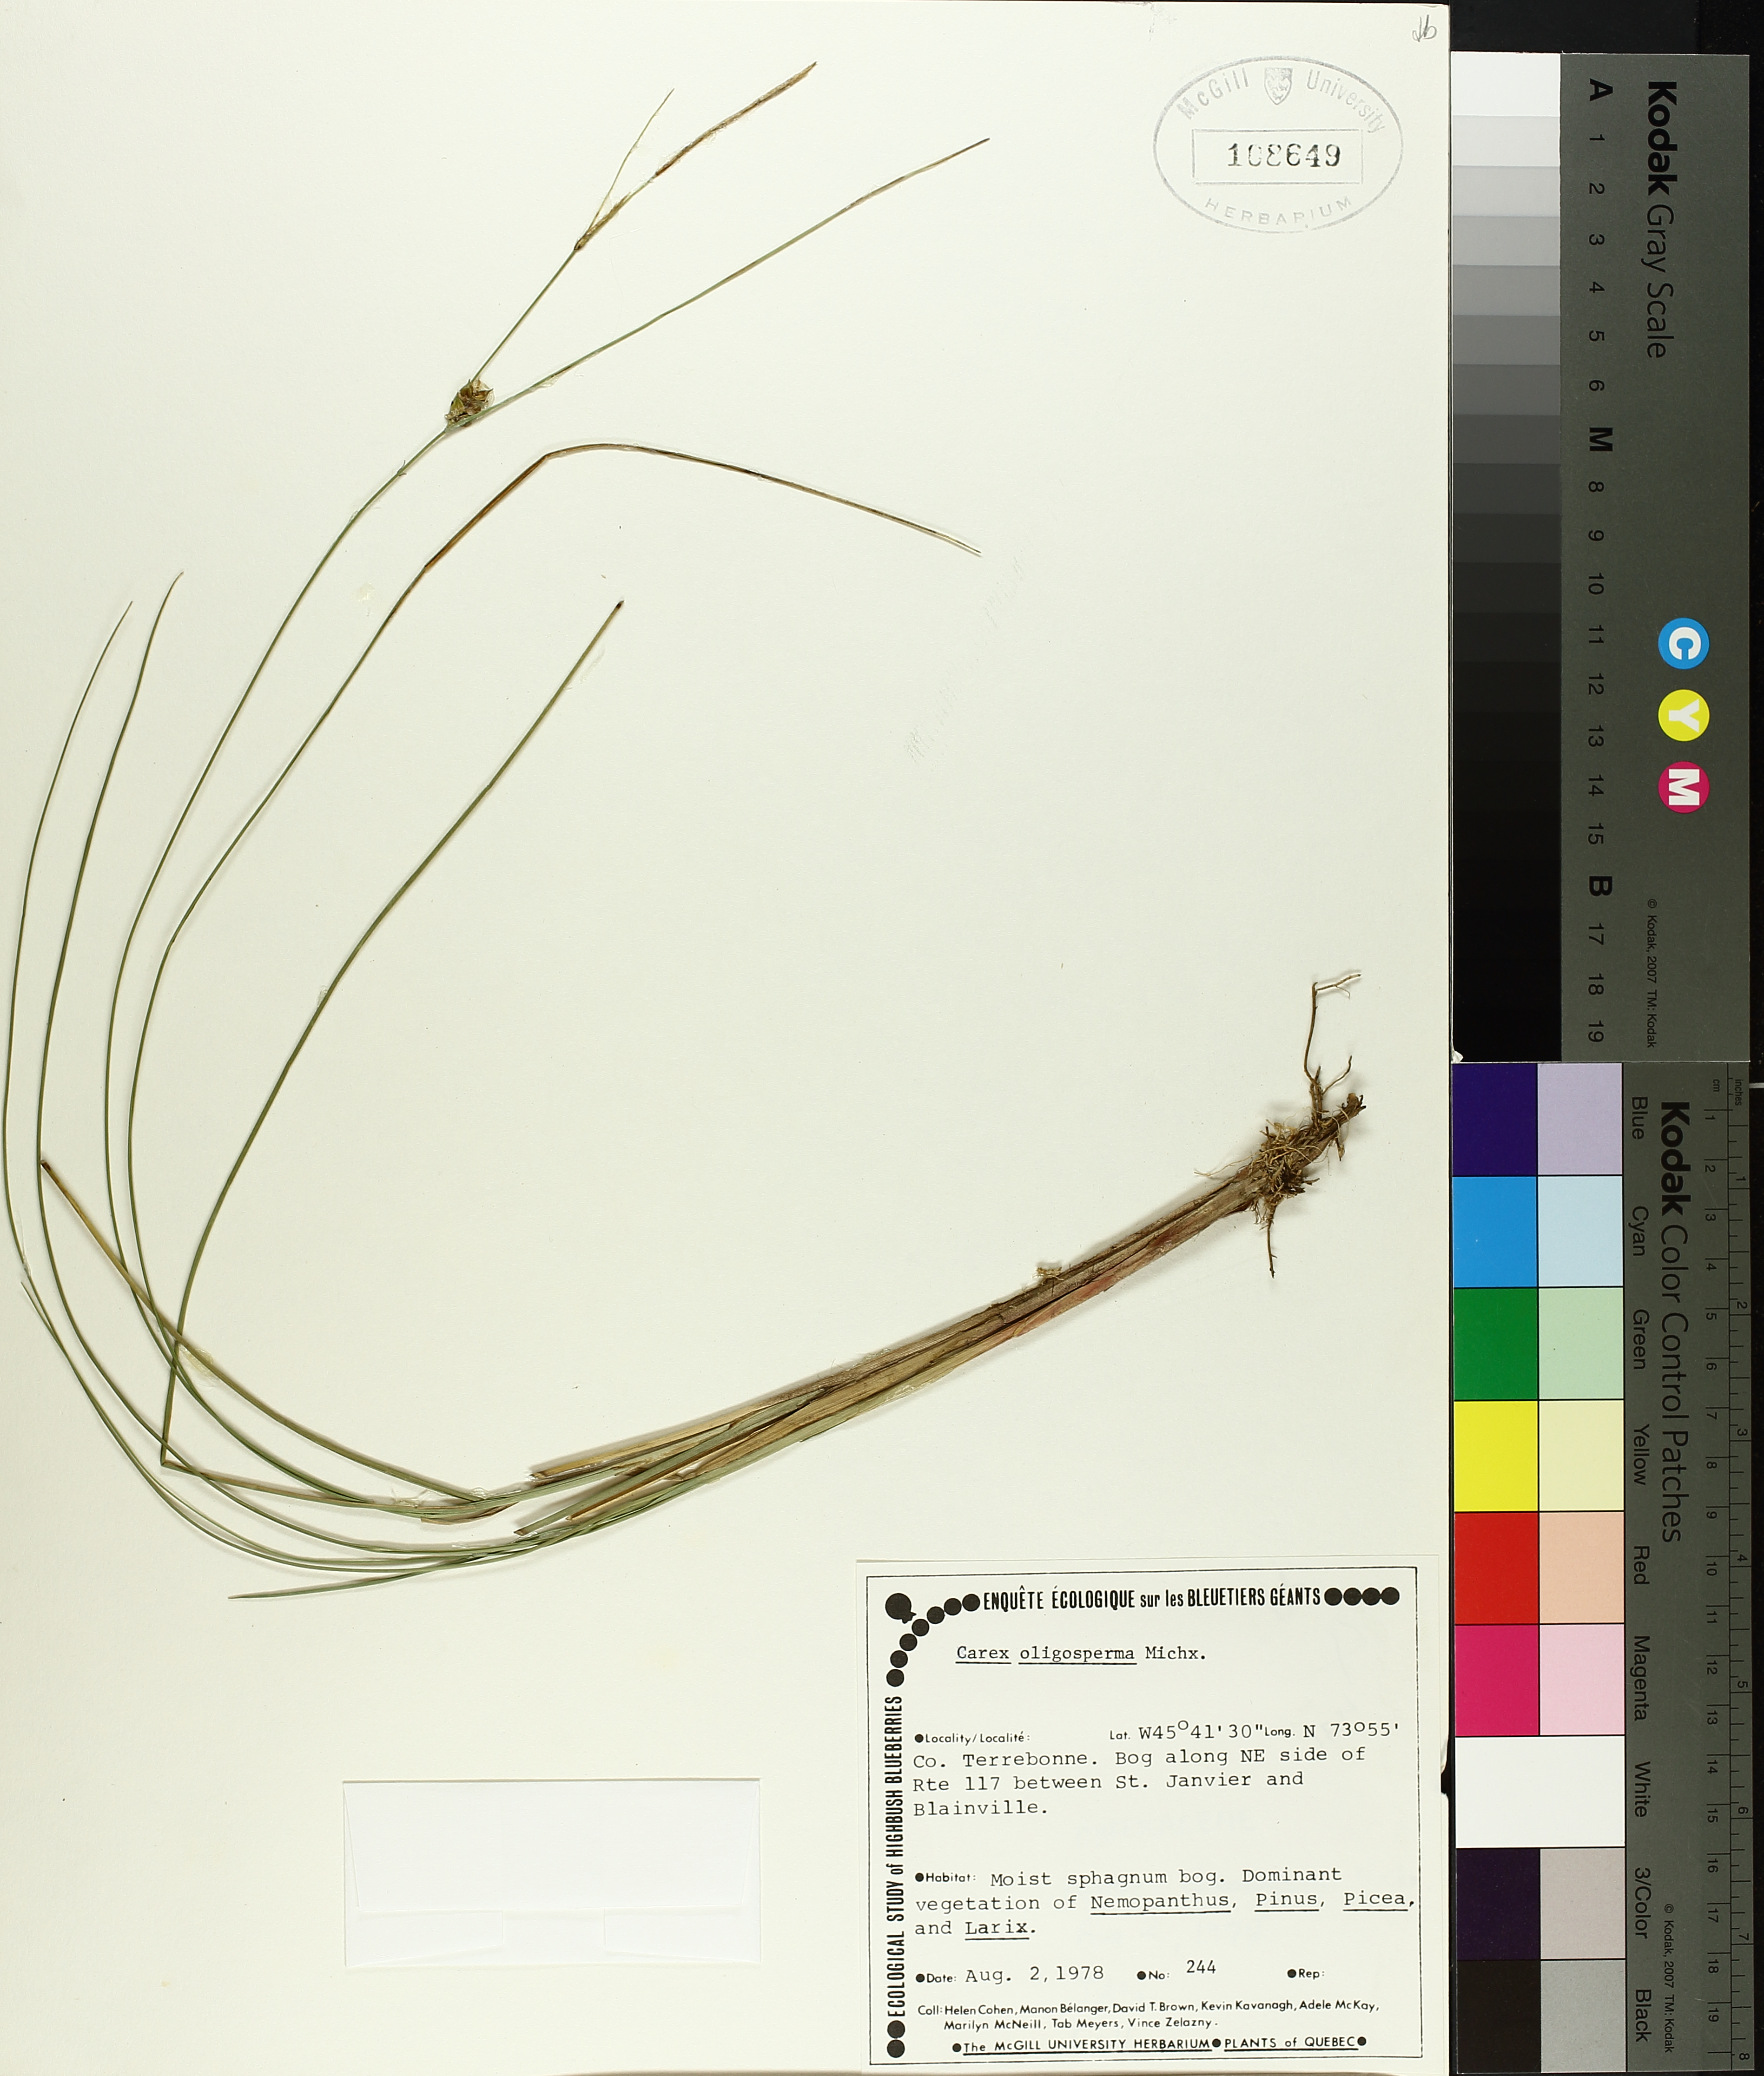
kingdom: Plantae
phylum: Tracheophyta
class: Liliopsida
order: Poales
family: Cyperaceae
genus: Carex
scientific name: Carex oligosperma
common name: Few-seed sedge
